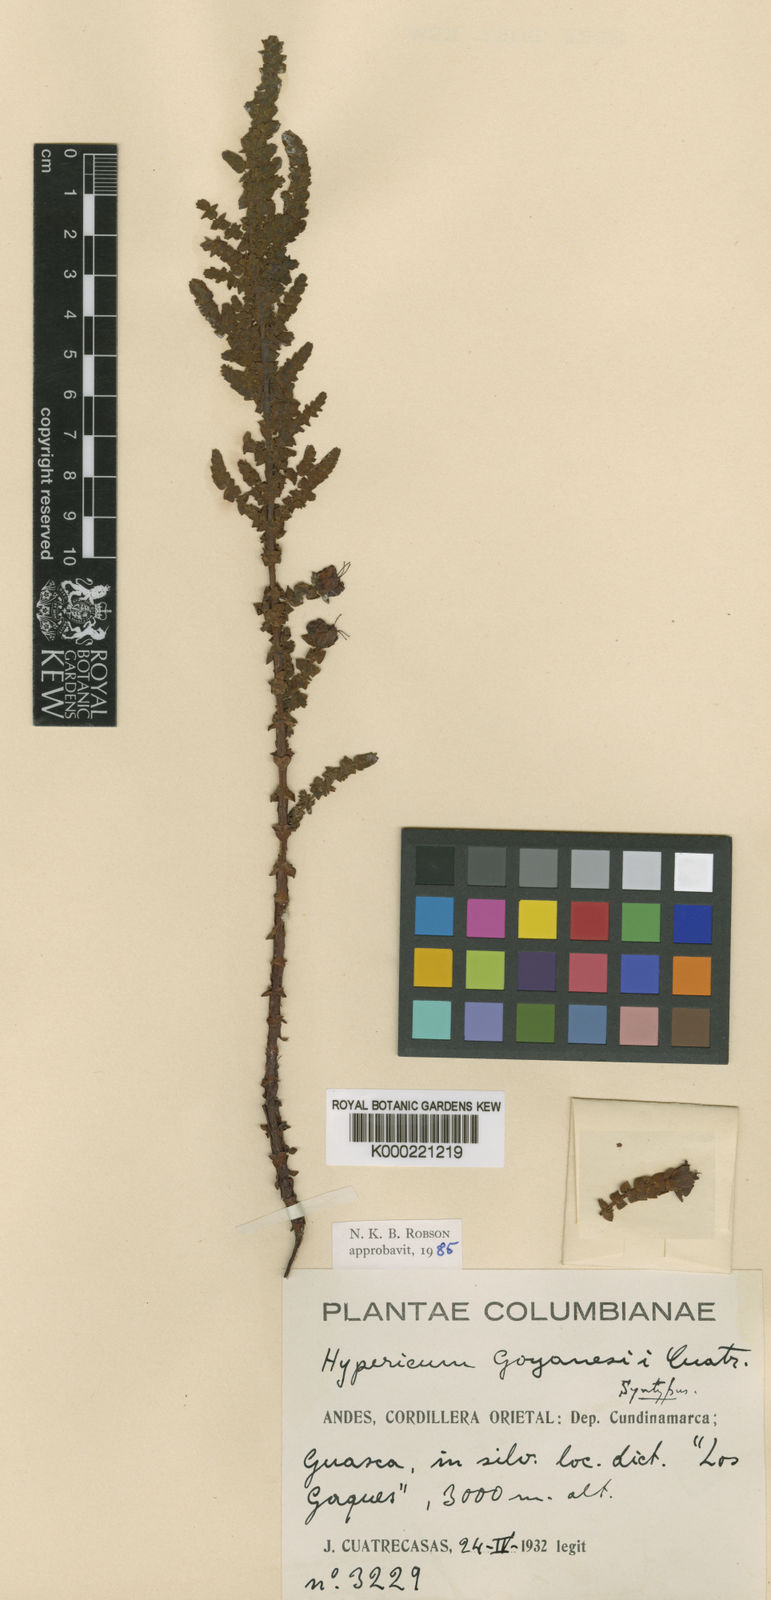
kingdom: Plantae
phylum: Tracheophyta
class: Magnoliopsida
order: Malpighiales
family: Hypericaceae
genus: Hypericum
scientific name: Hypericum goyanesii
